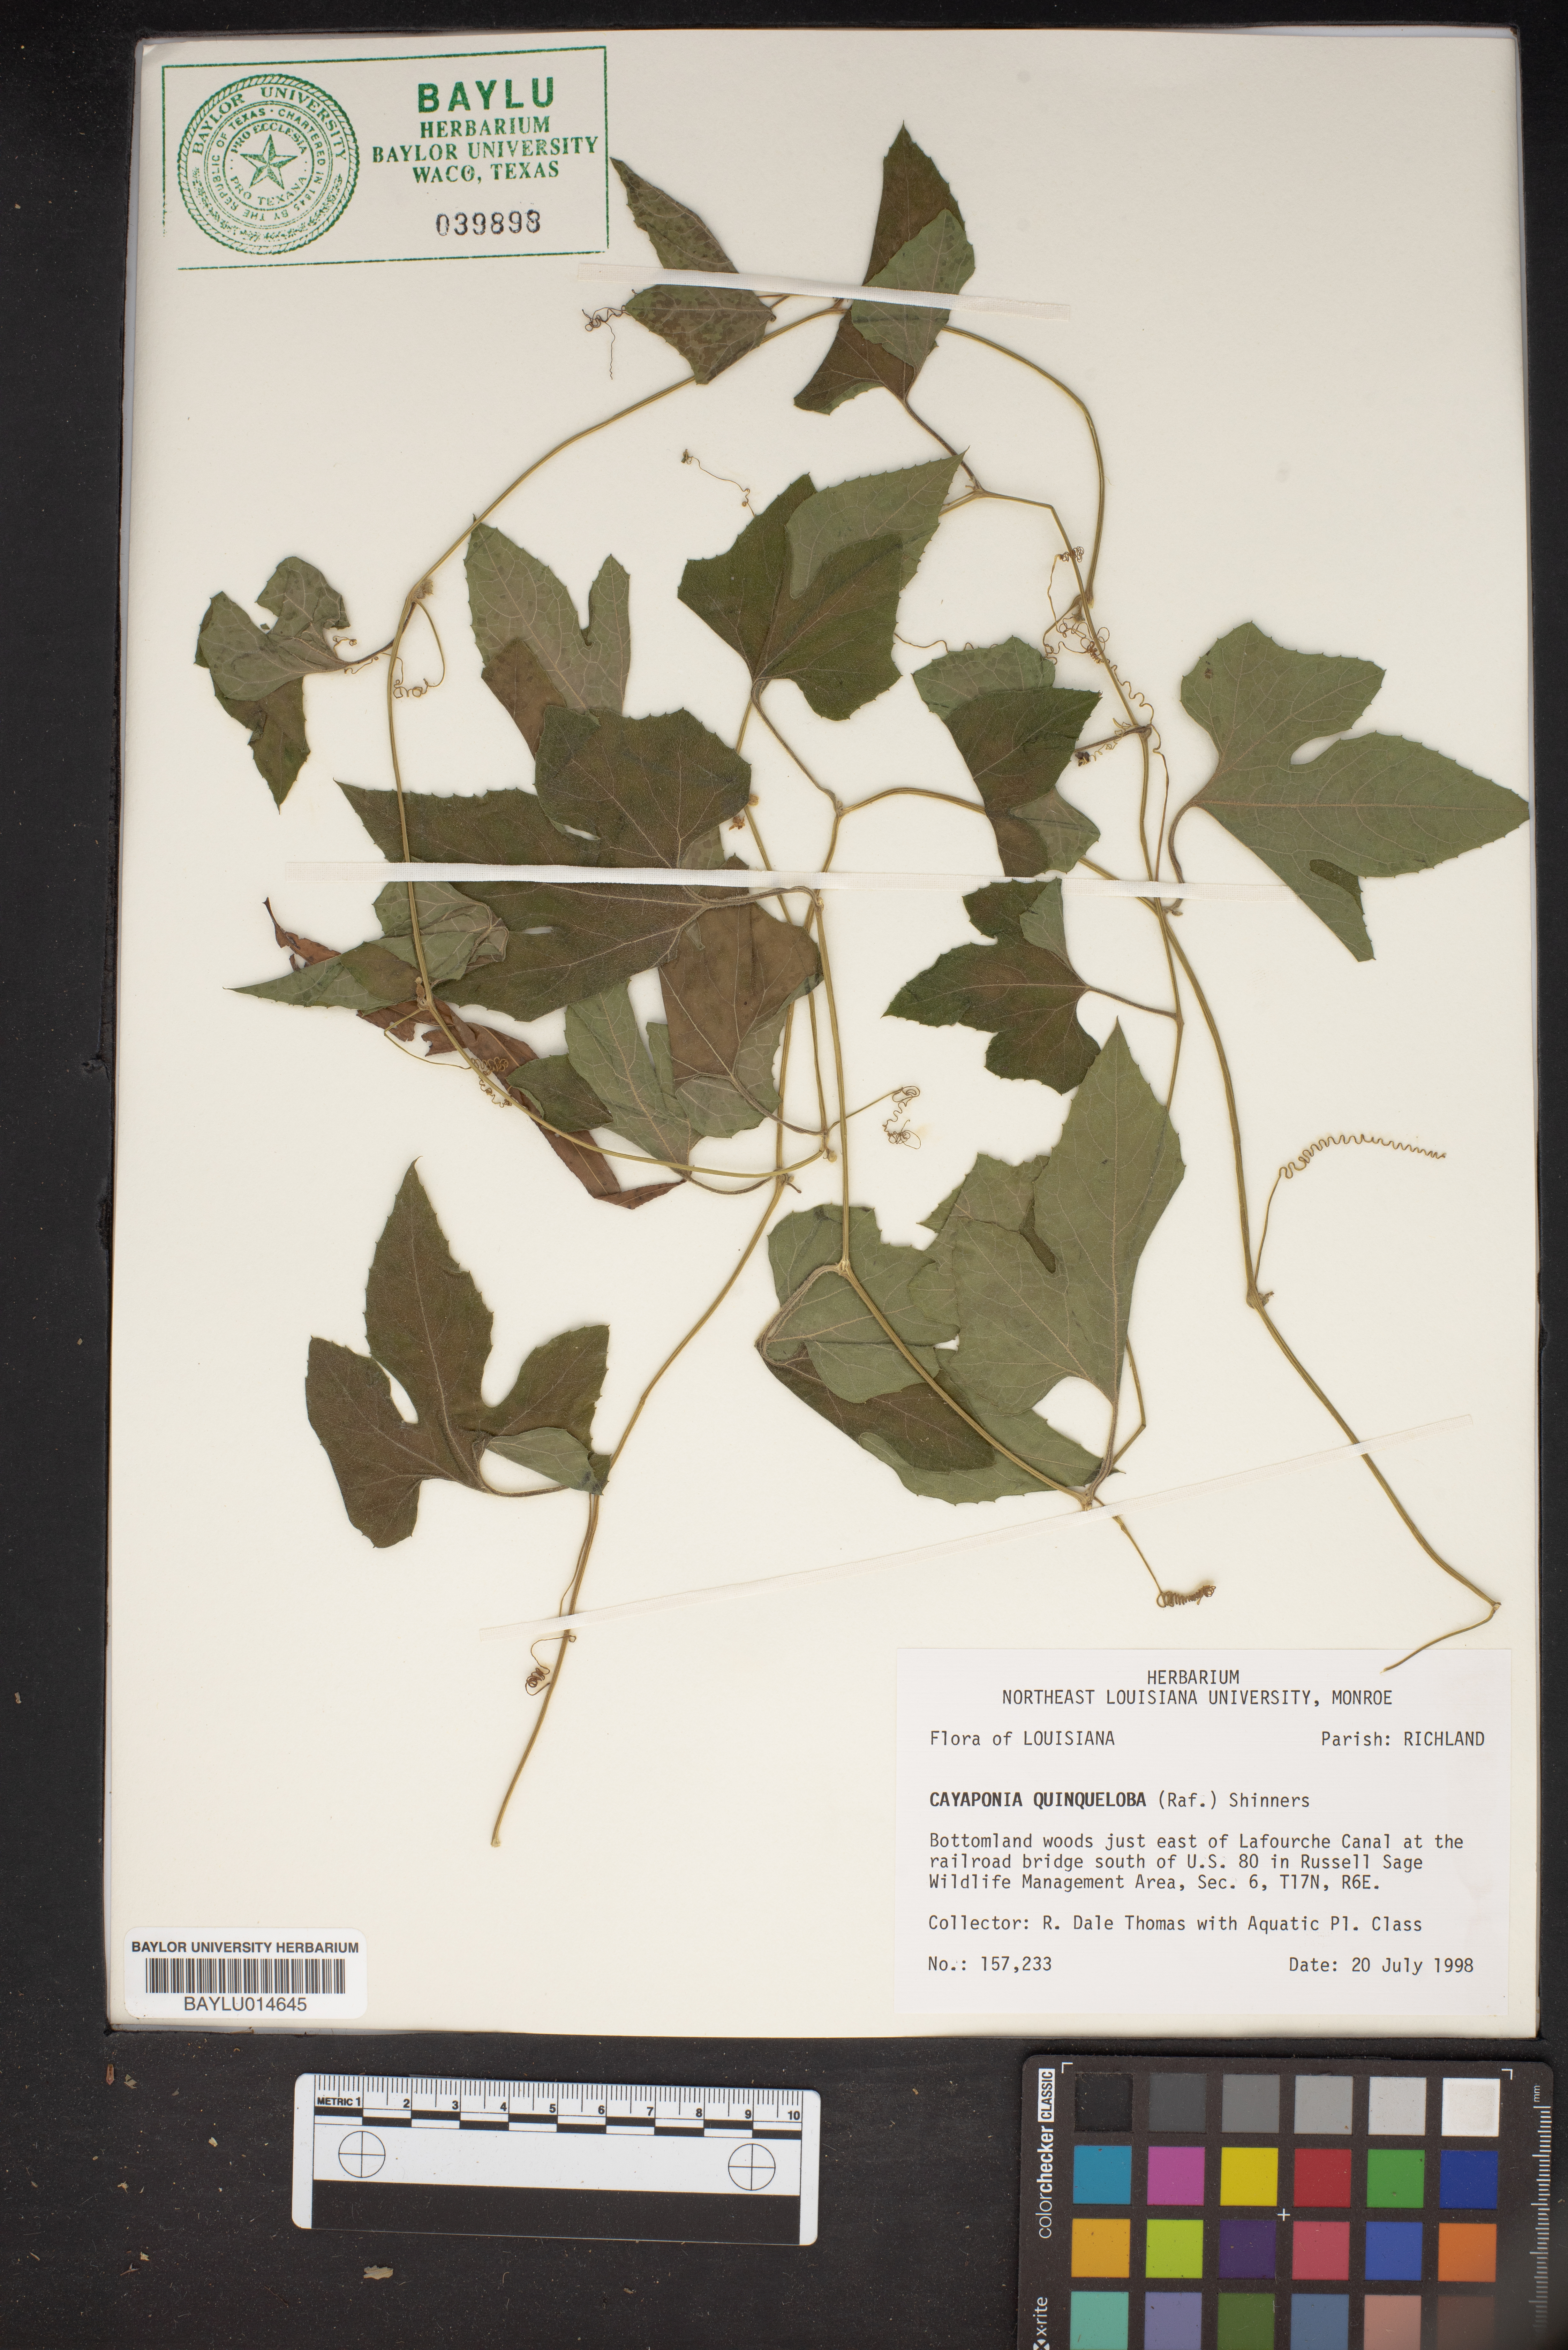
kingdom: Plantae
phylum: Tracheophyta
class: Magnoliopsida
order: Cucurbitales
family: Cucurbitaceae
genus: Cayaponia
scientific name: Cayaponia quinqueloba
